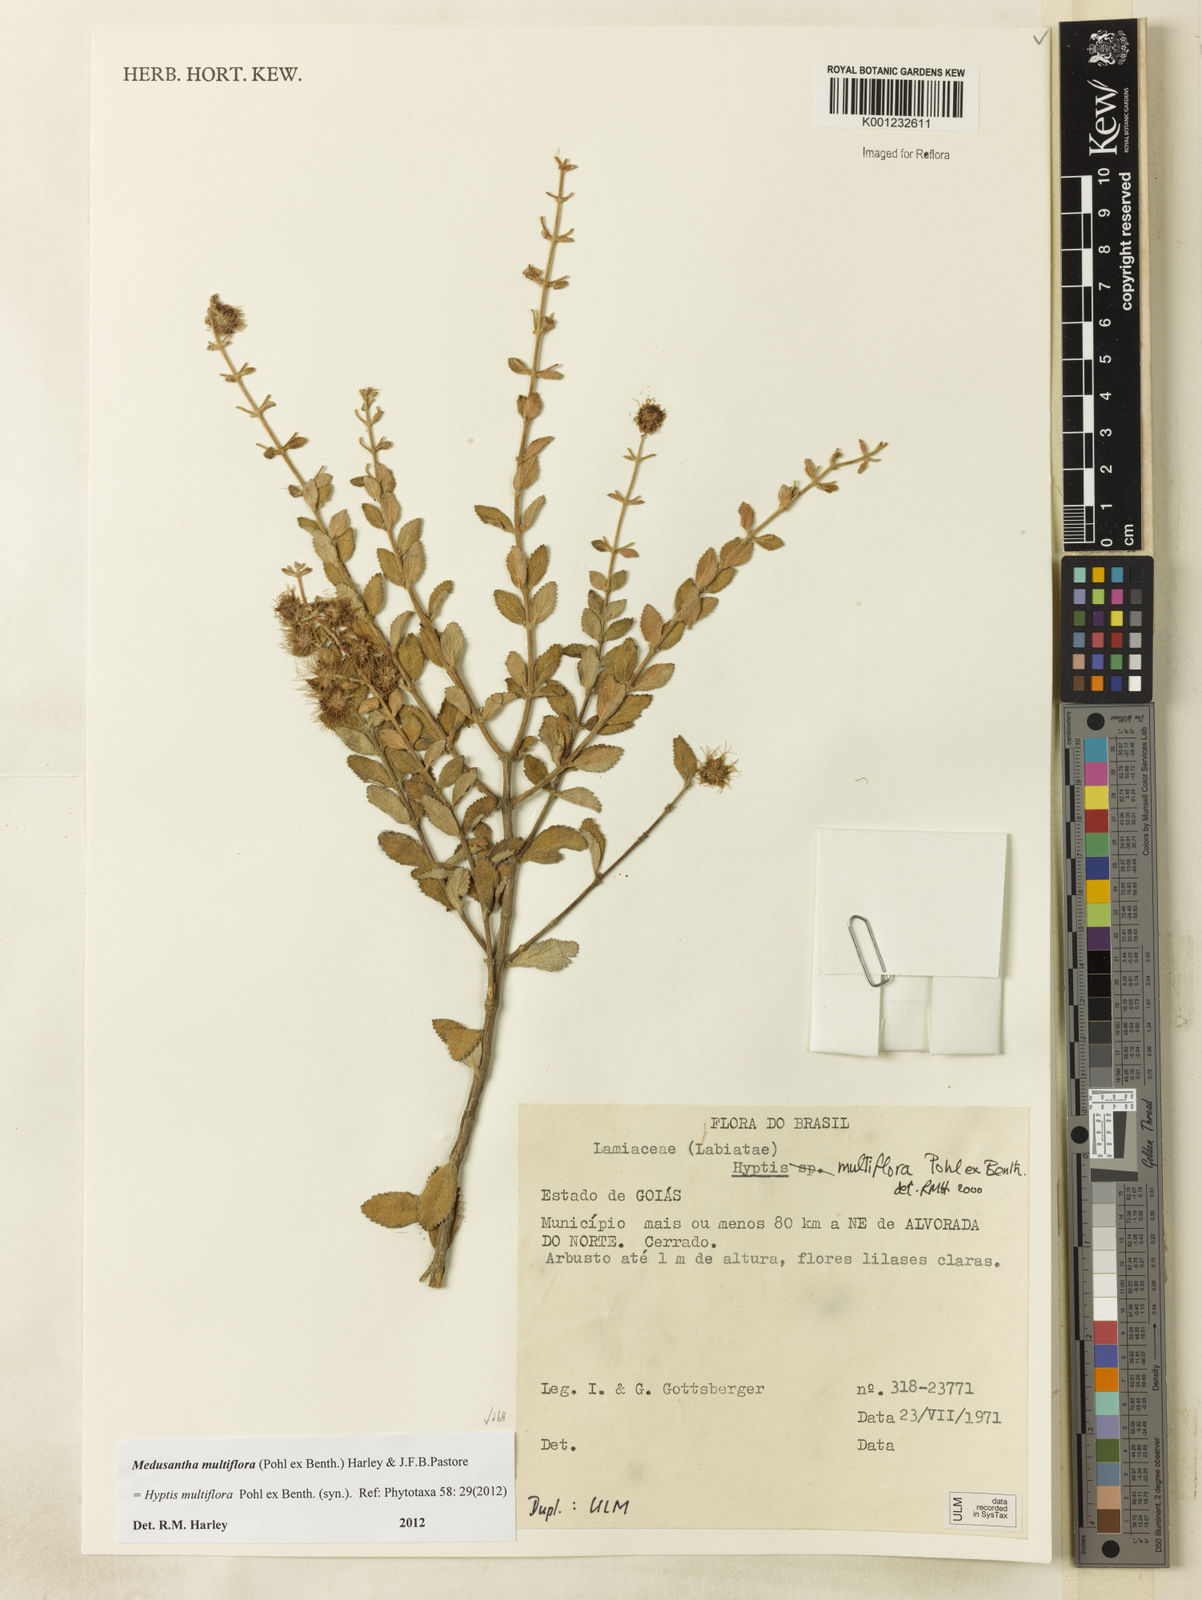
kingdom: Plantae
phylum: Tracheophyta
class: Magnoliopsida
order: Lamiales
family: Lamiaceae
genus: Medusantha
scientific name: Medusantha multiflora
